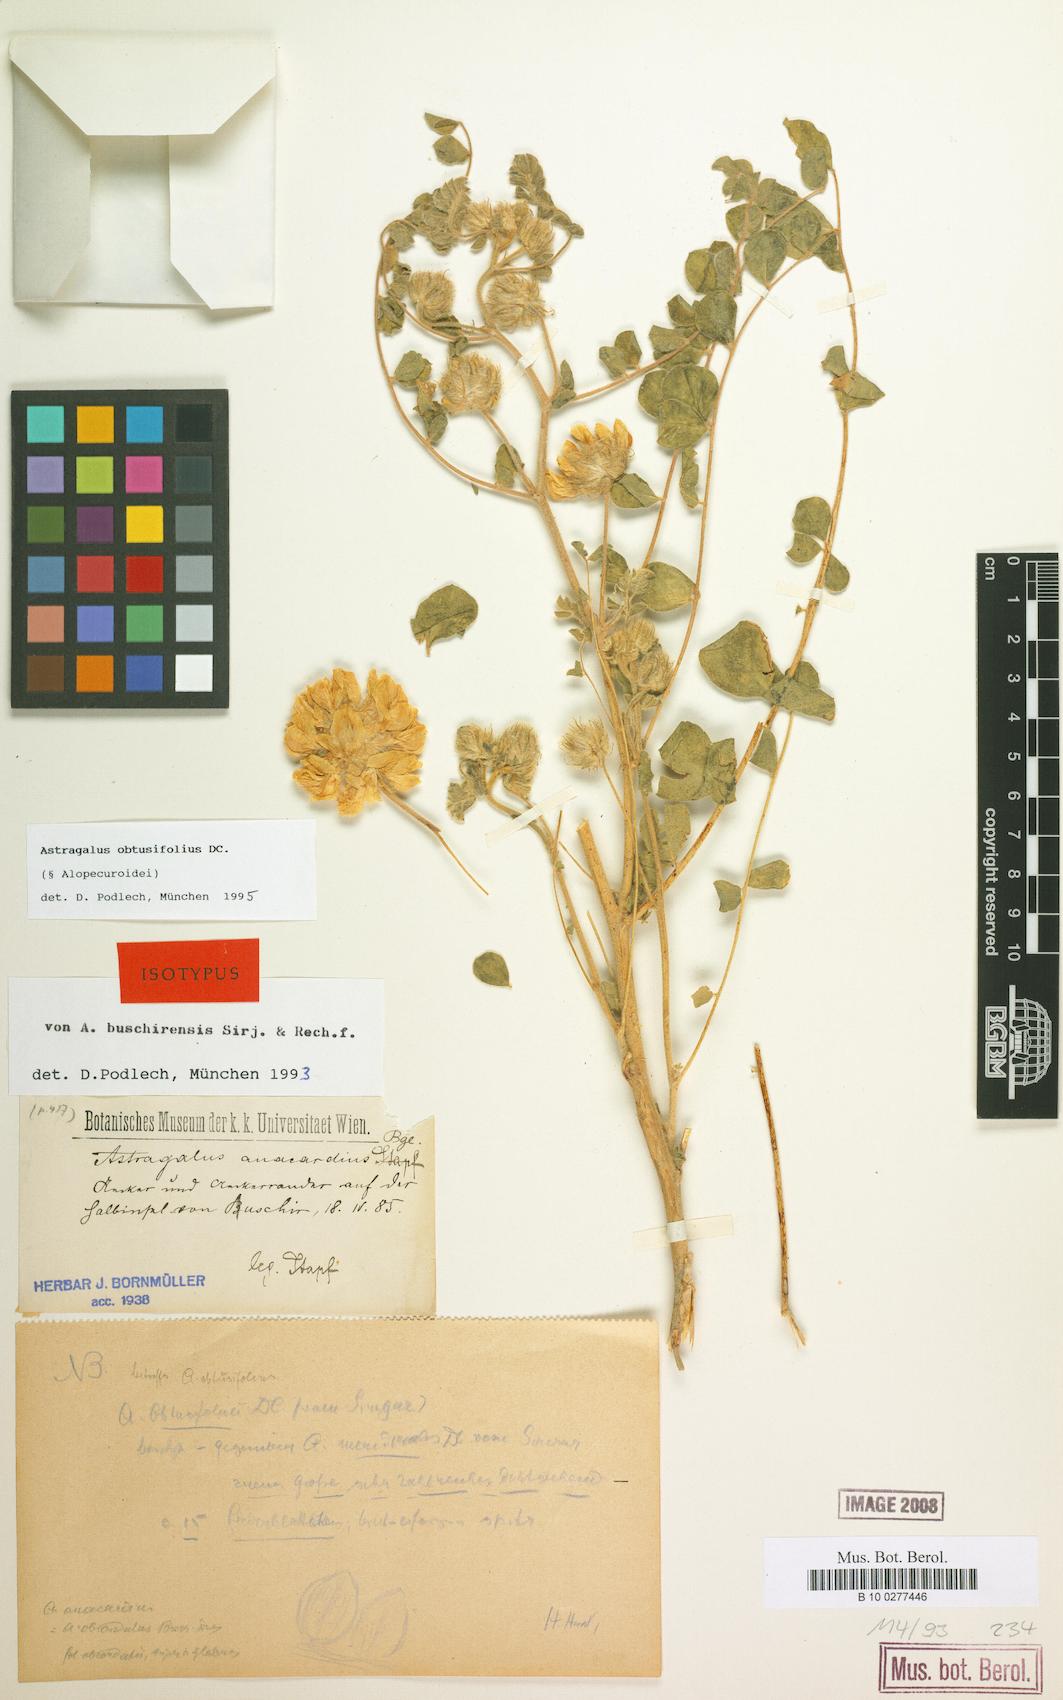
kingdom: Plantae
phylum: Tracheophyta
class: Magnoliopsida
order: Fabales
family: Fabaceae
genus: Astragalus
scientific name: Astragalus obtusifolius
